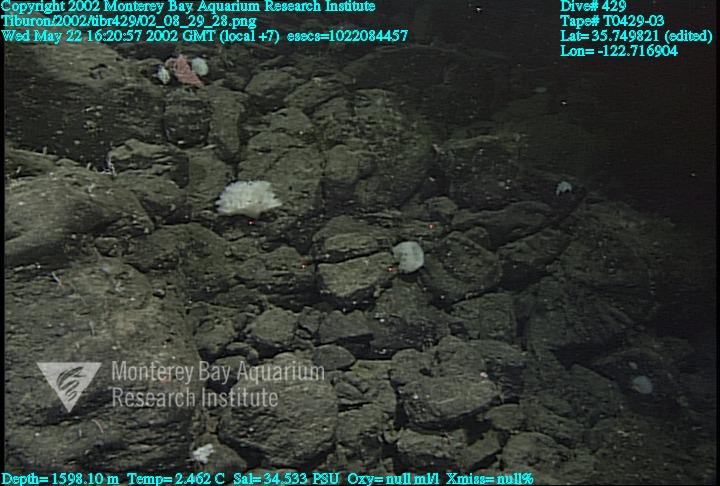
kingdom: Animalia
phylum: Porifera
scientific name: Porifera
